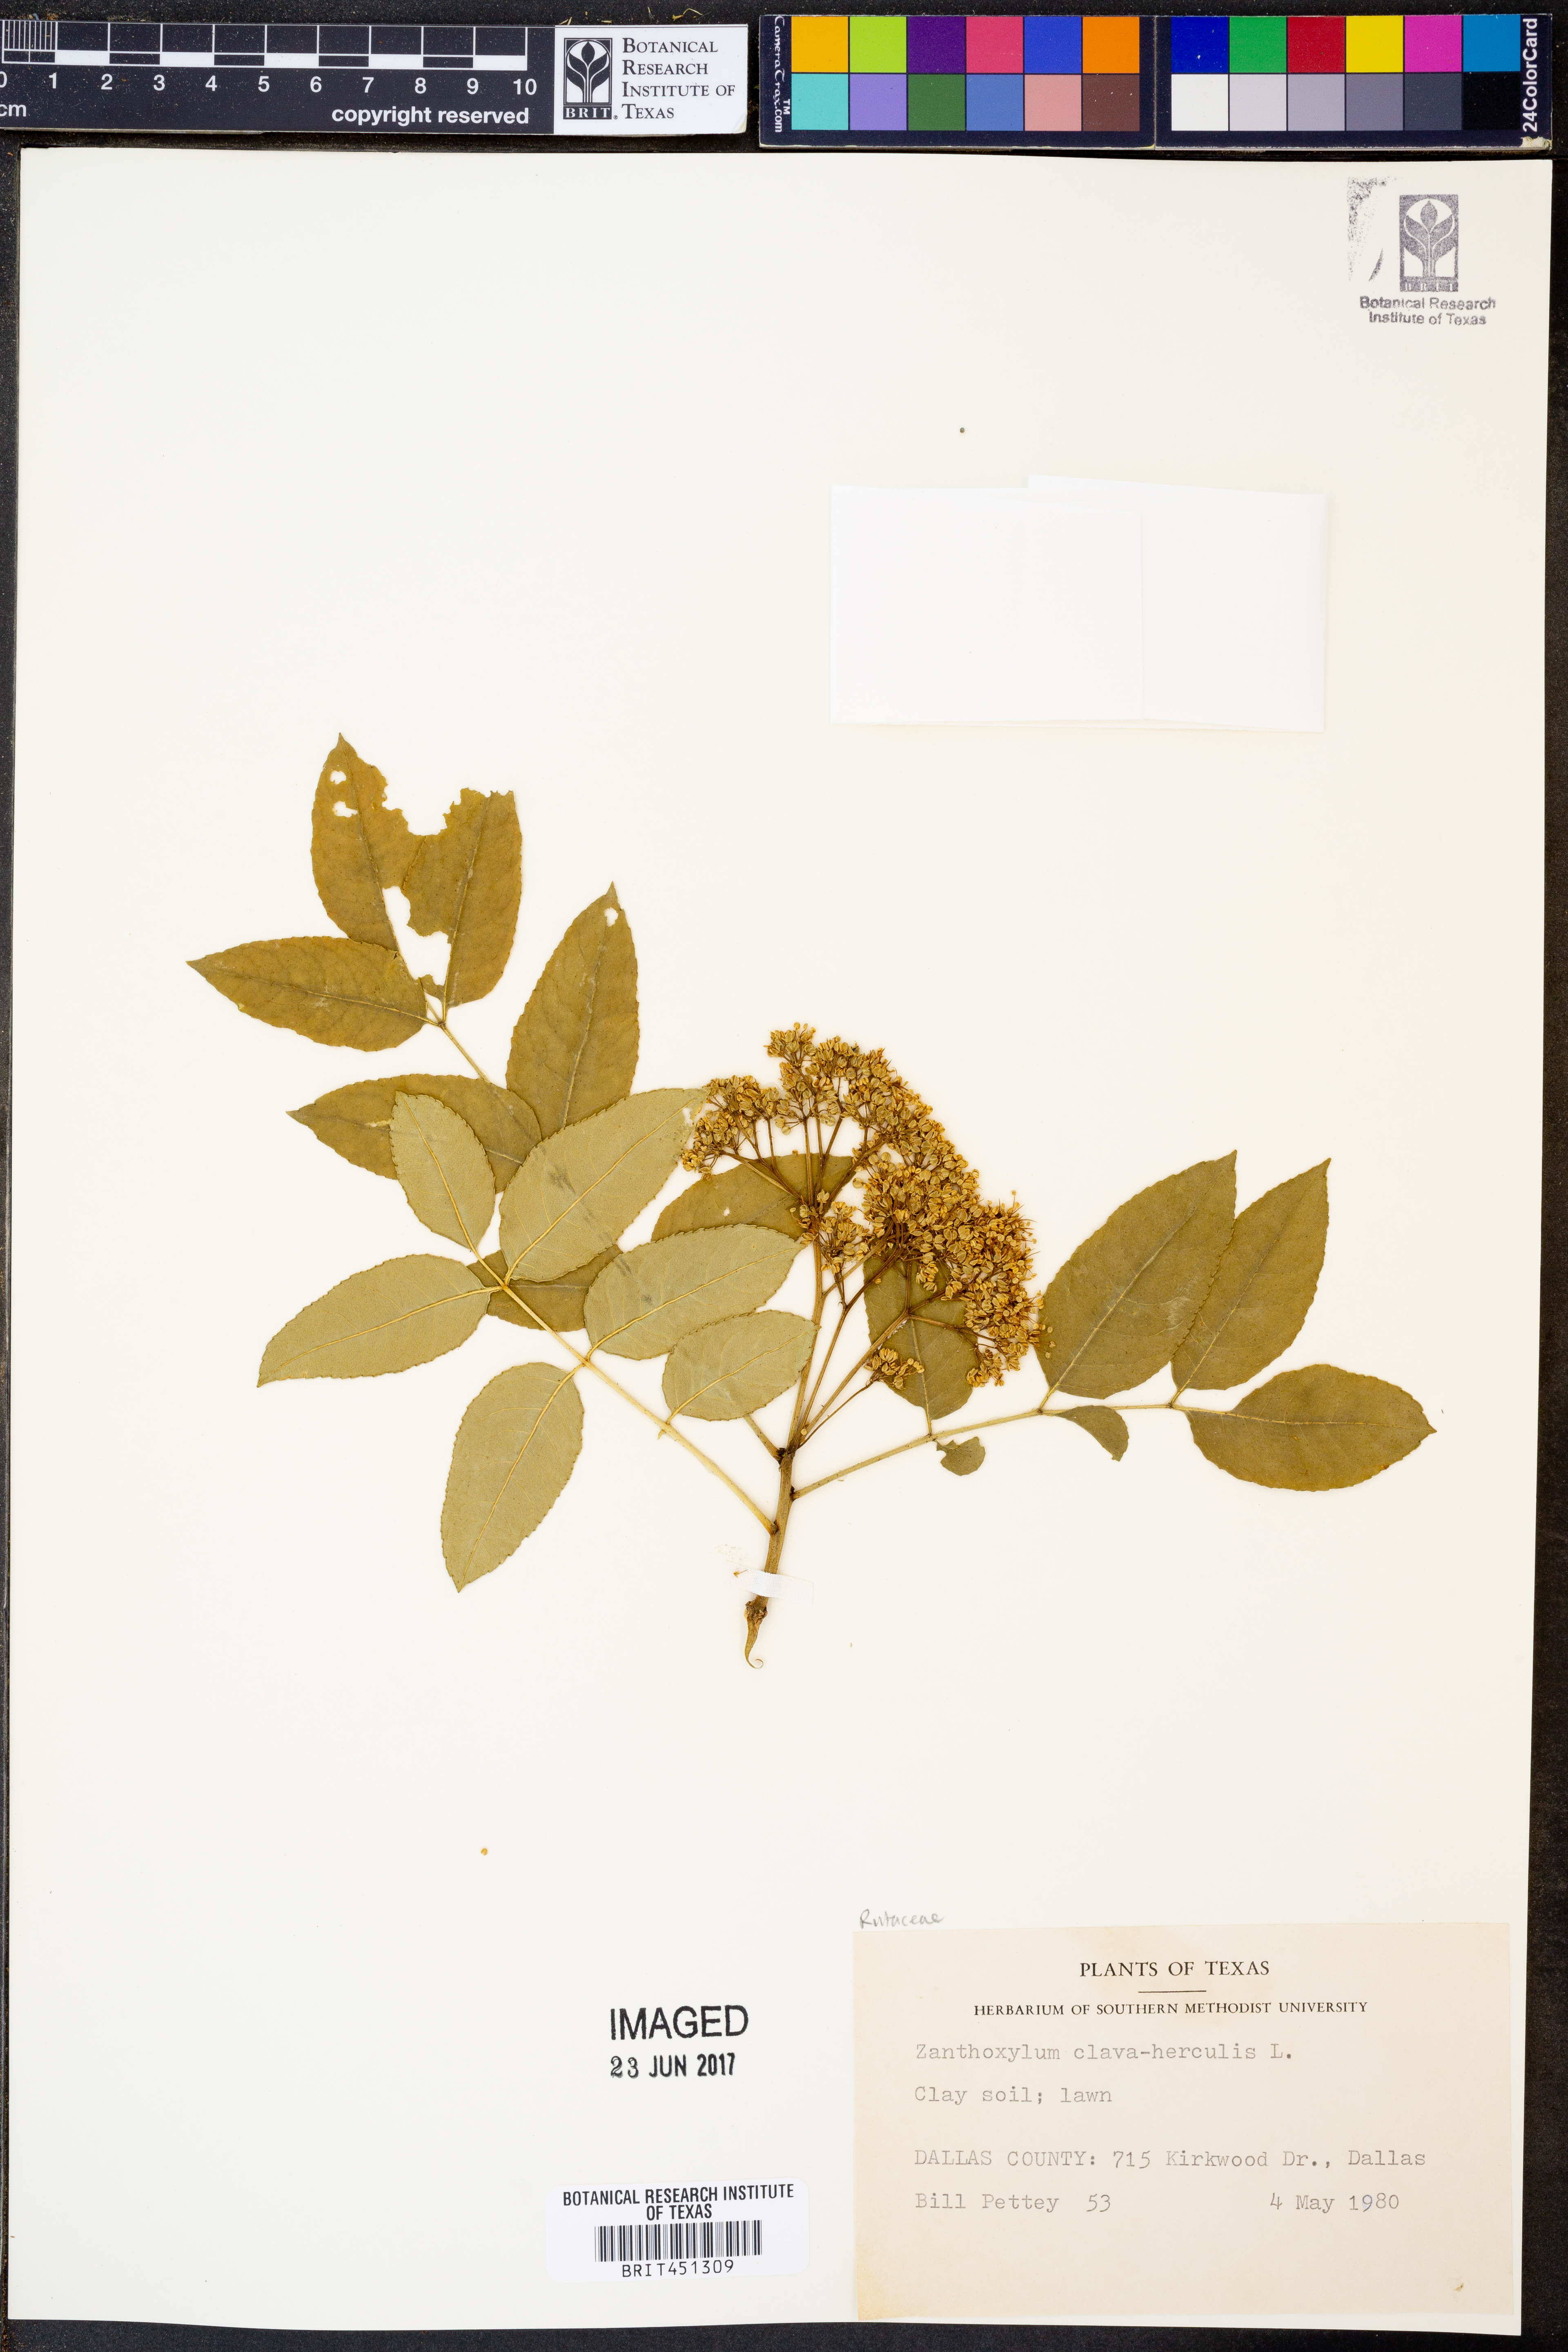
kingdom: Plantae
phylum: Tracheophyta
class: Magnoliopsida
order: Sapindales
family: Rutaceae
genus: Zanthoxylum
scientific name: Zanthoxylum avicennae
